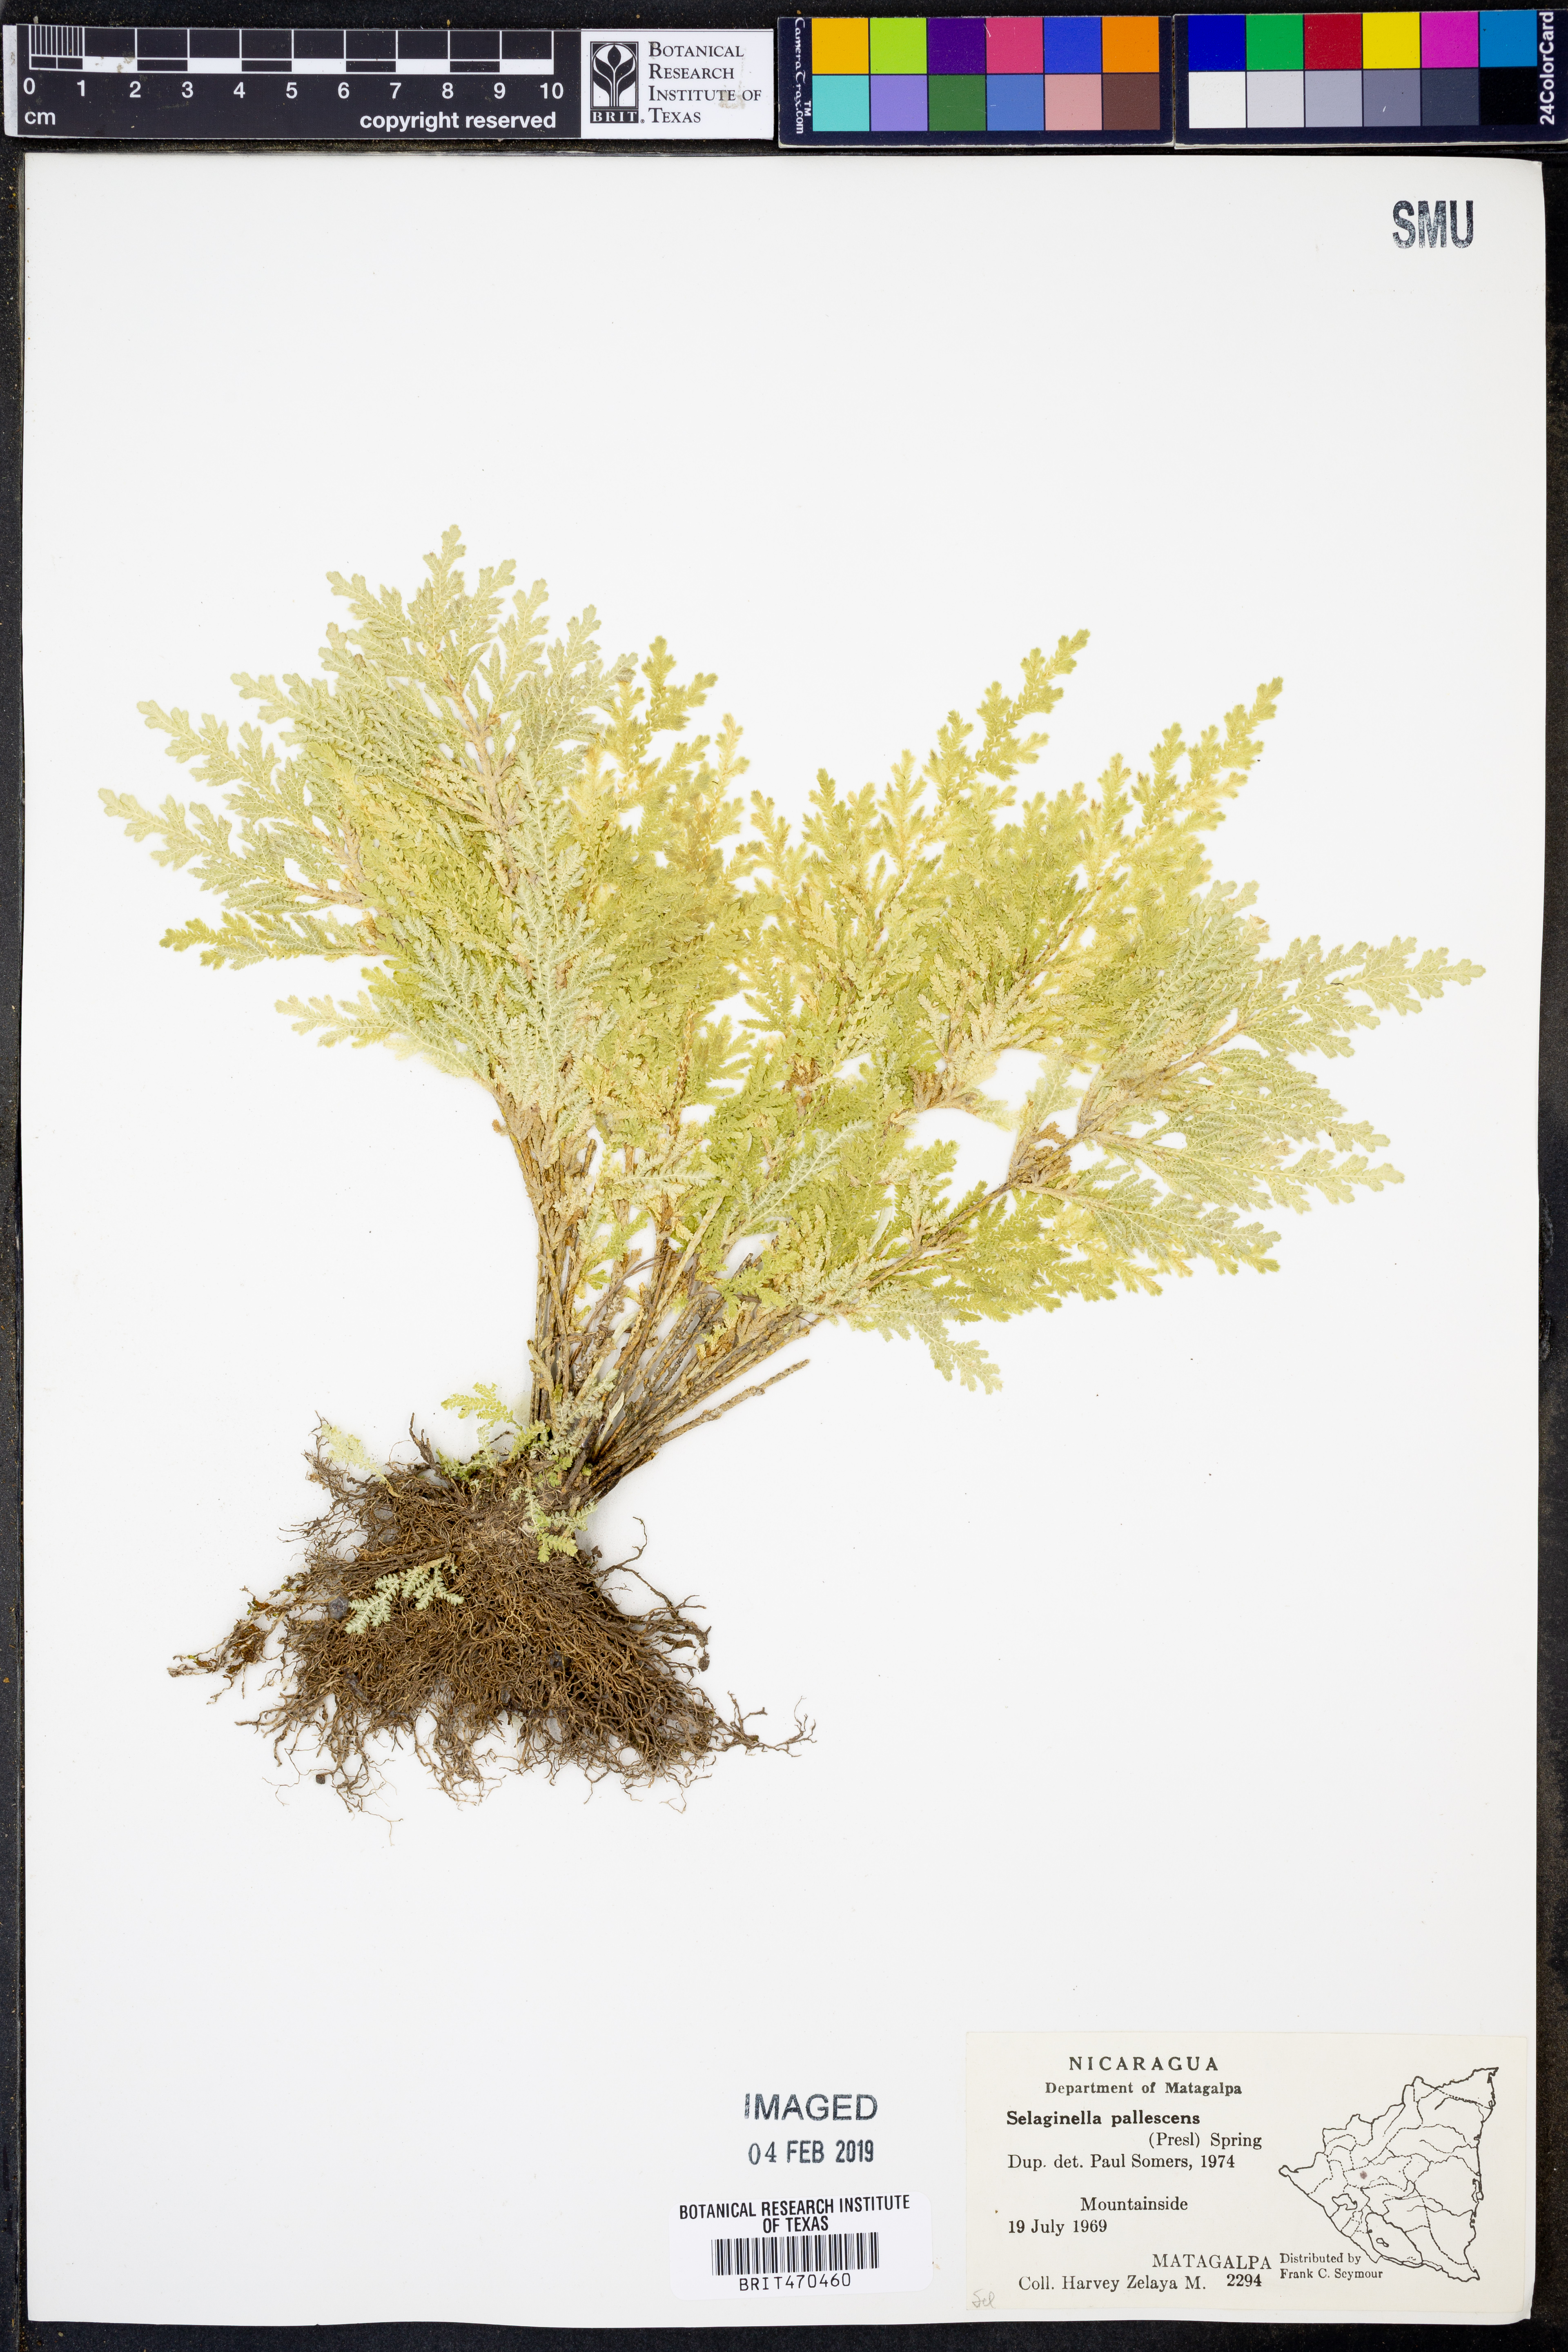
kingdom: Plantae
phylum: Tracheophyta
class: Lycopodiopsida
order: Selaginellales
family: Selaginellaceae
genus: Selaginella
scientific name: Selaginella pallescens
